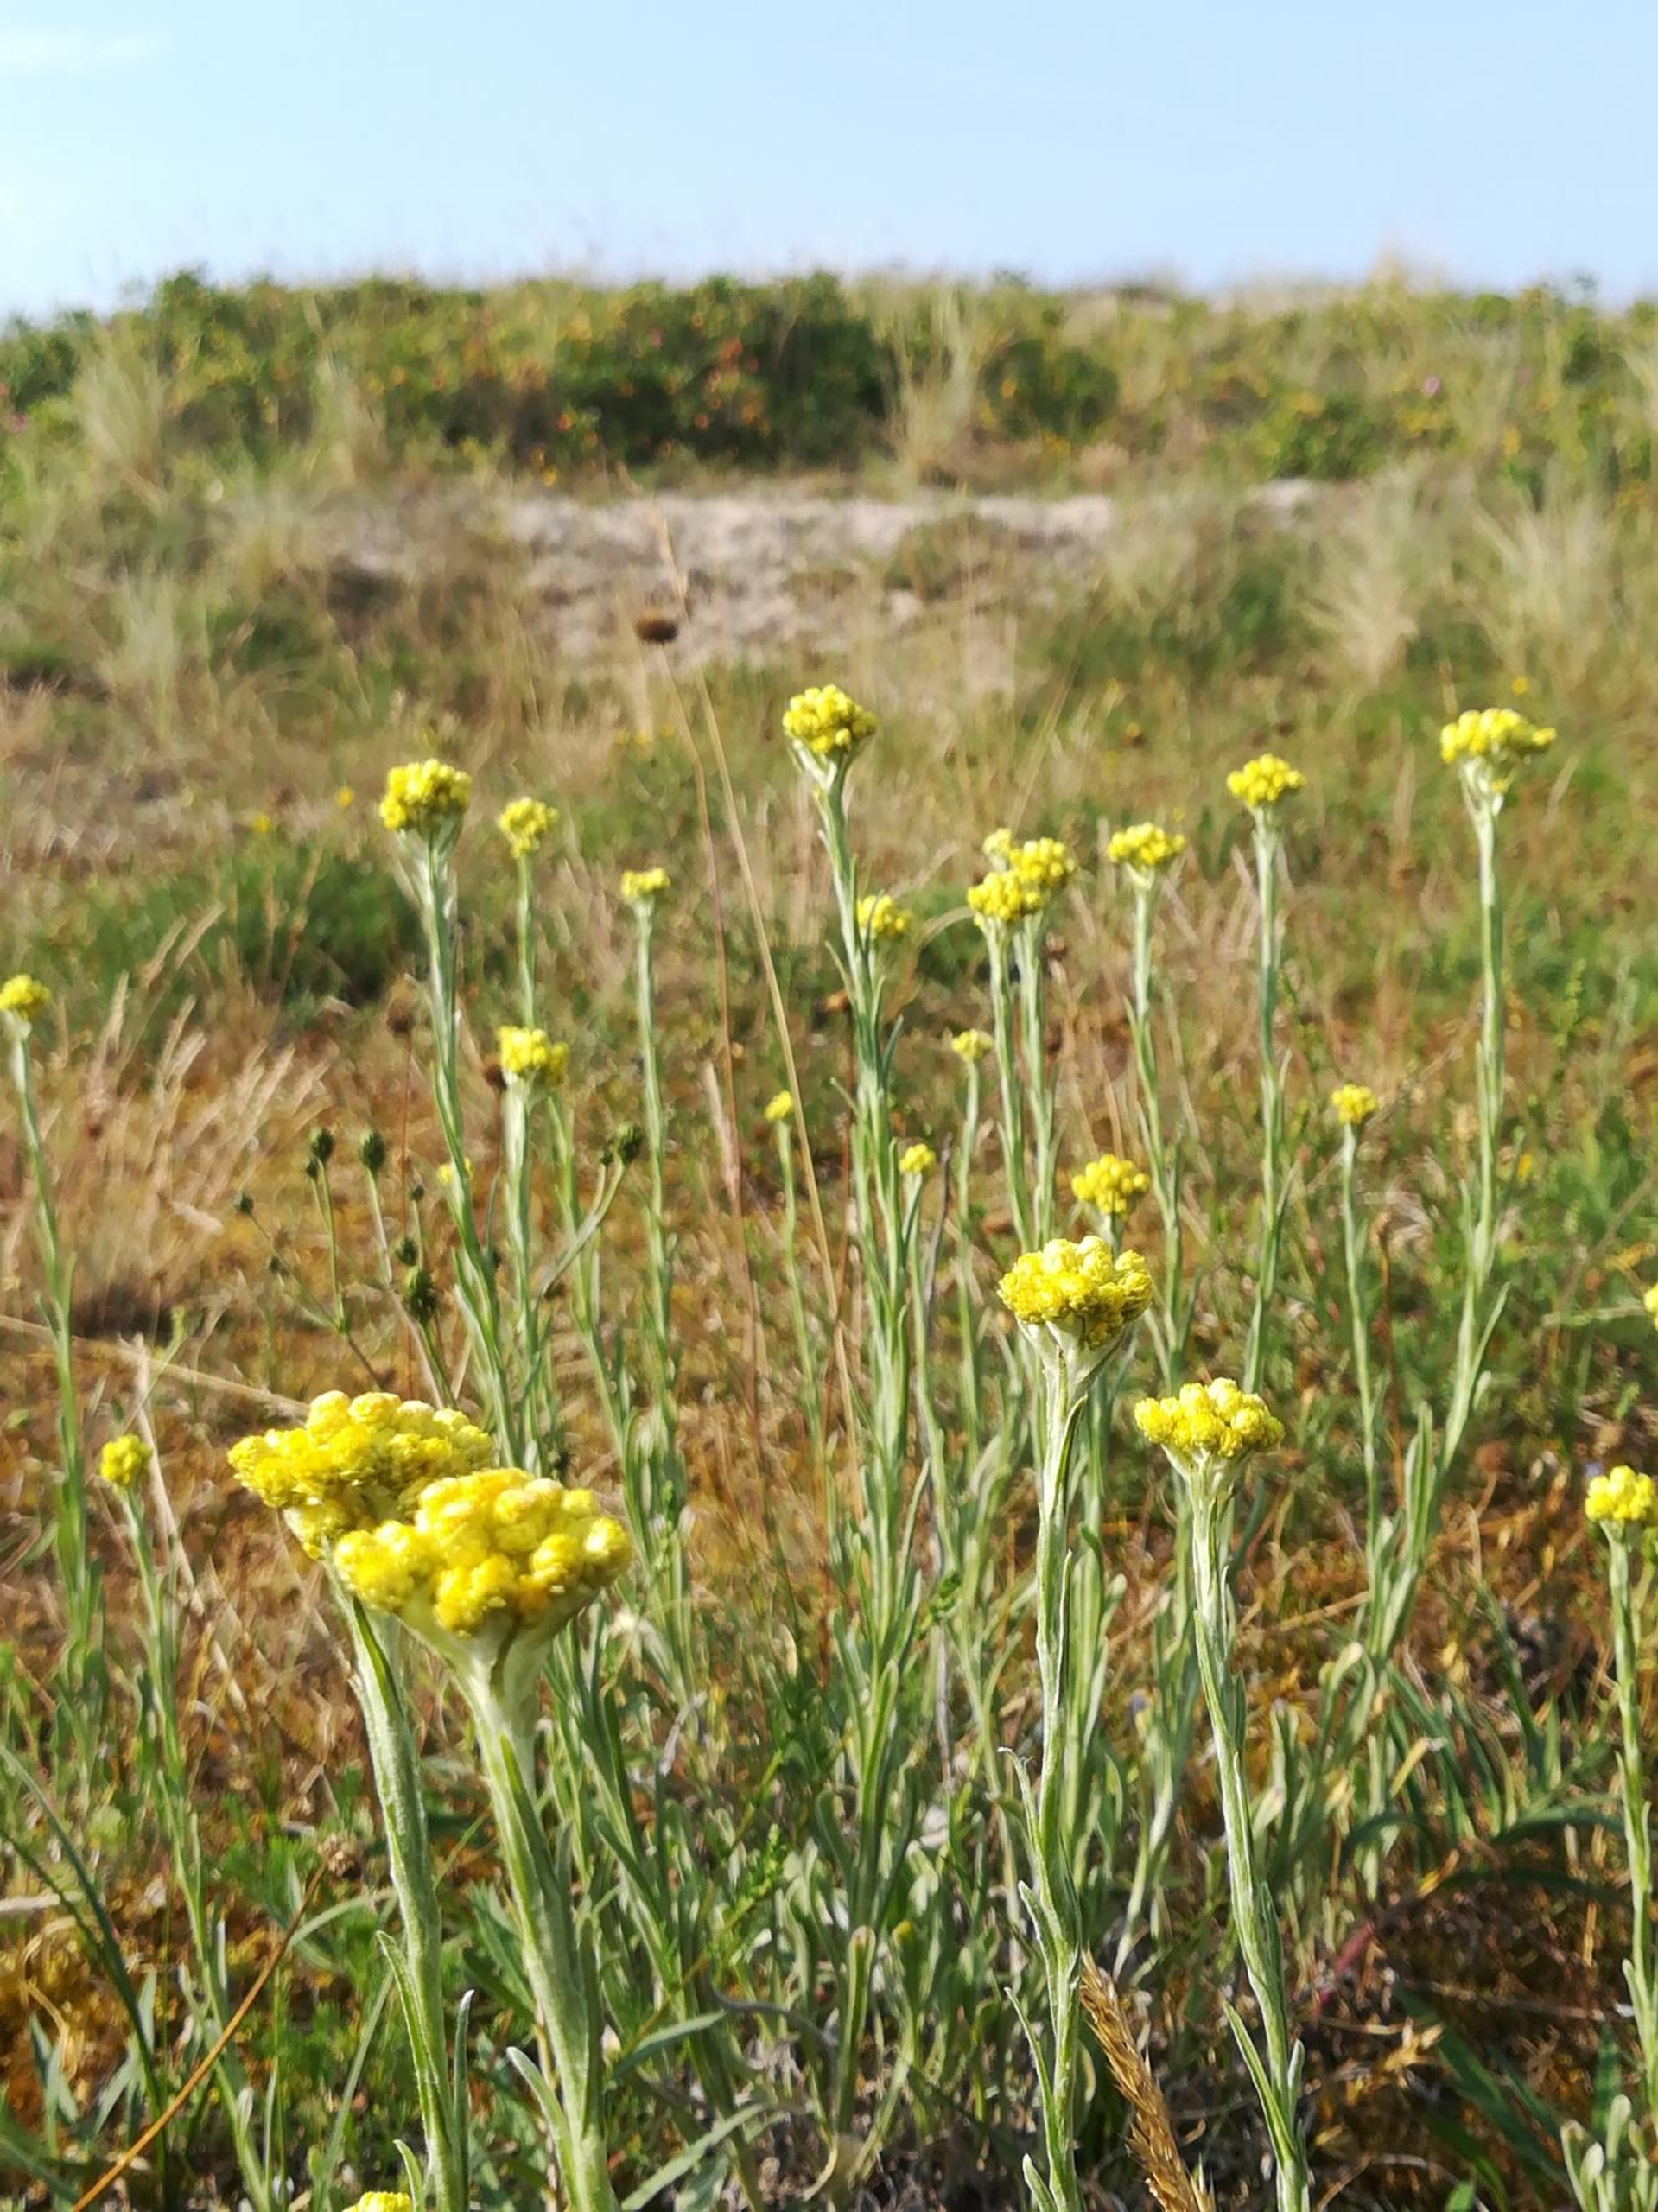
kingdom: Plantae
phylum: Tracheophyta
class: Magnoliopsida
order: Asterales
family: Asteraceae
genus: Helichrysum
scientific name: Helichrysum arenarium
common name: Gul evighedsblomst
